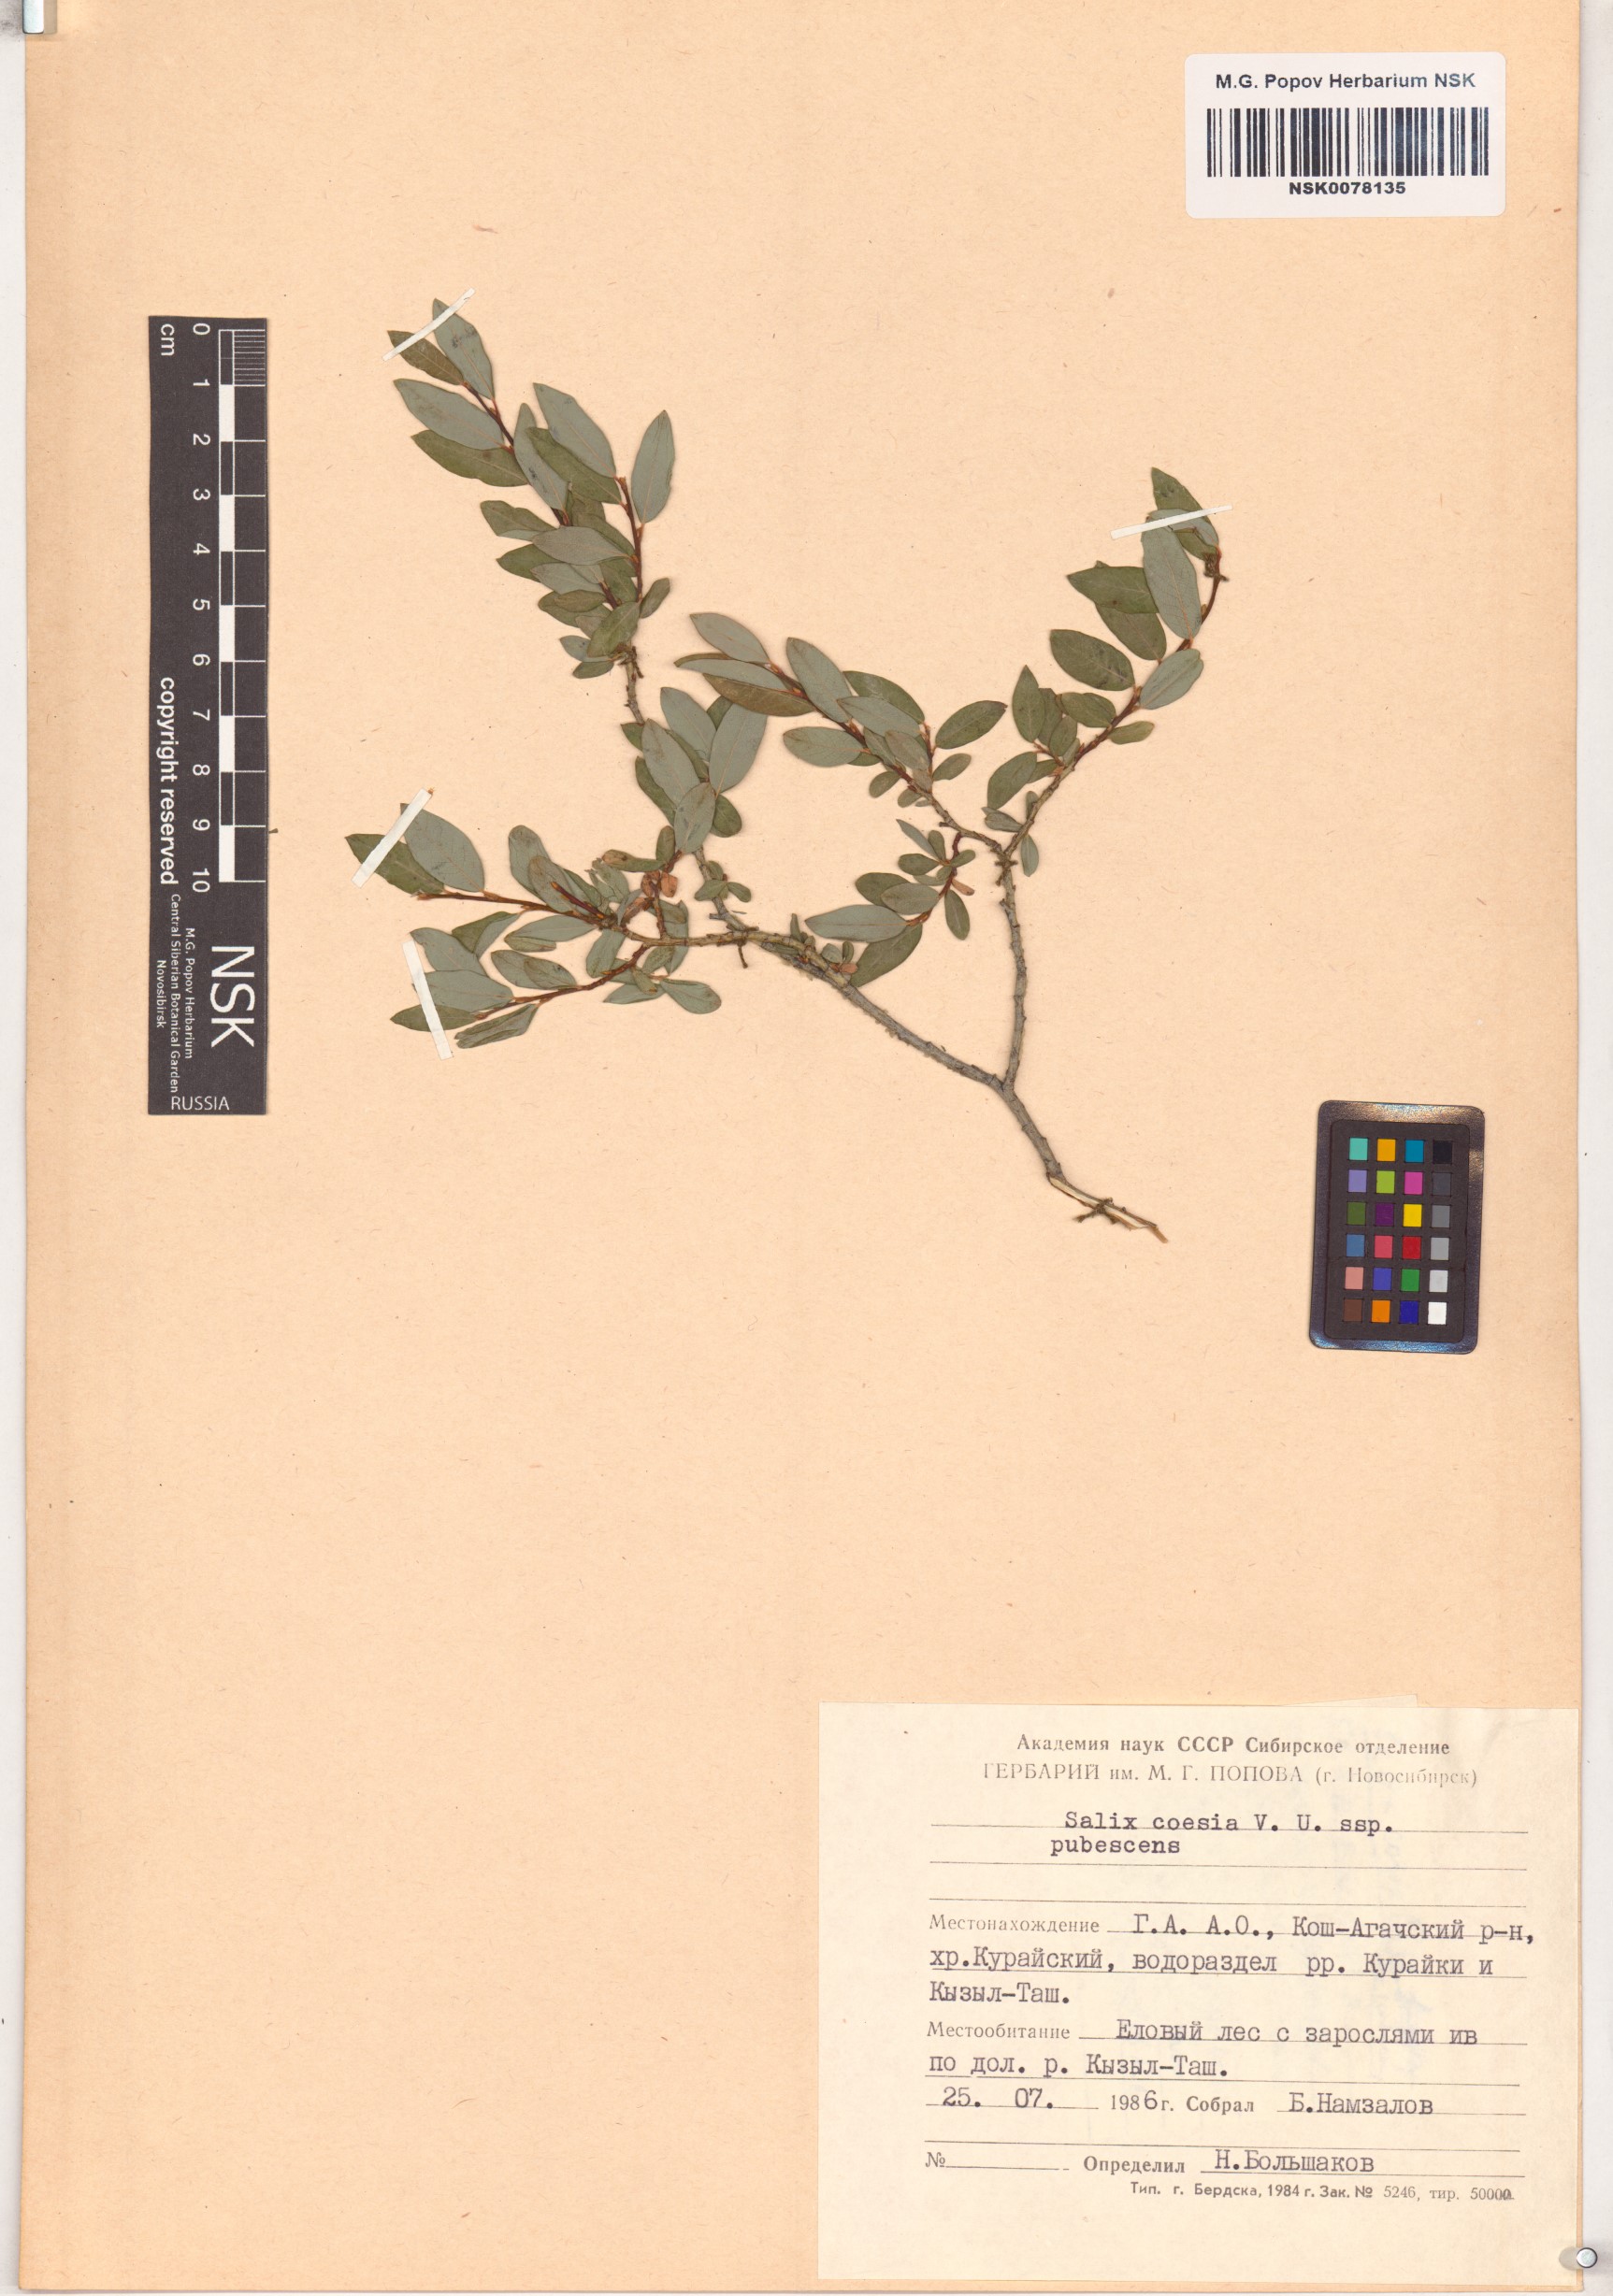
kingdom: Plantae
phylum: Tracheophyta
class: Magnoliopsida
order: Malpighiales
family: Salicaceae
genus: Salix
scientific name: Salix caesia
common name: Blue willow
